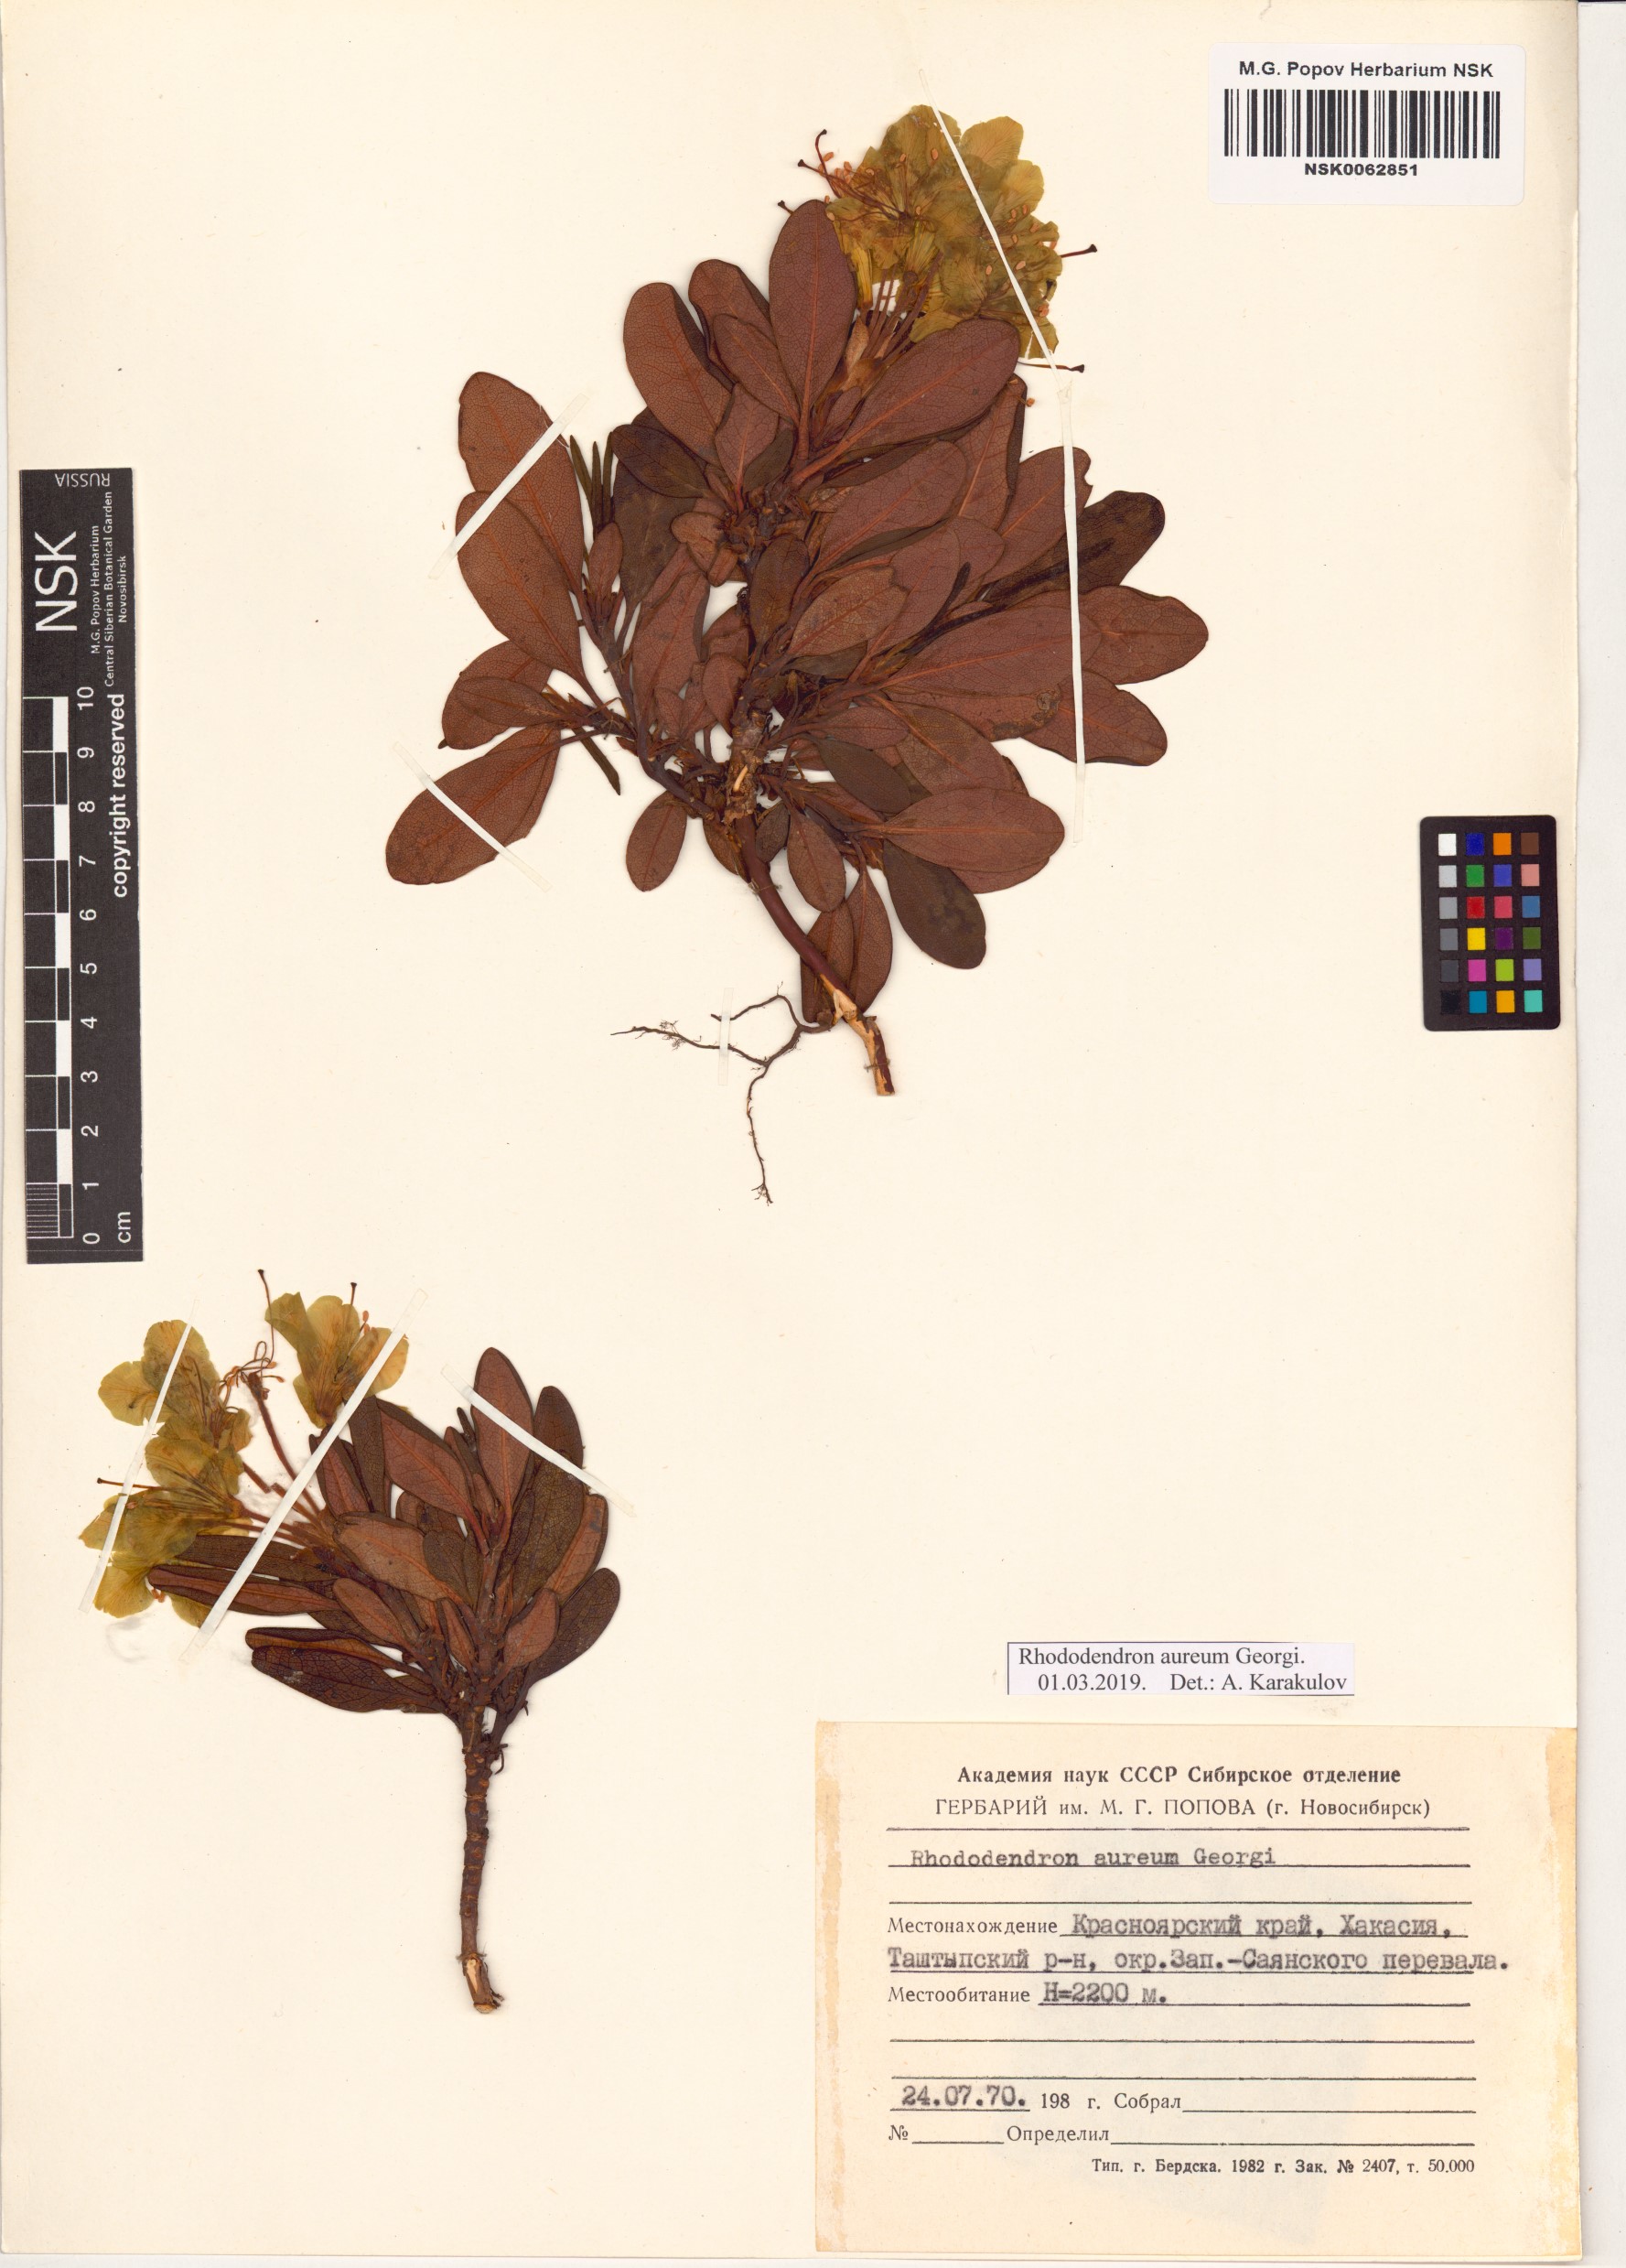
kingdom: Plantae
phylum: Tracheophyta
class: Magnoliopsida
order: Ericales
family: Ericaceae
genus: Rhododendron
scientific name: Rhododendron aureum
